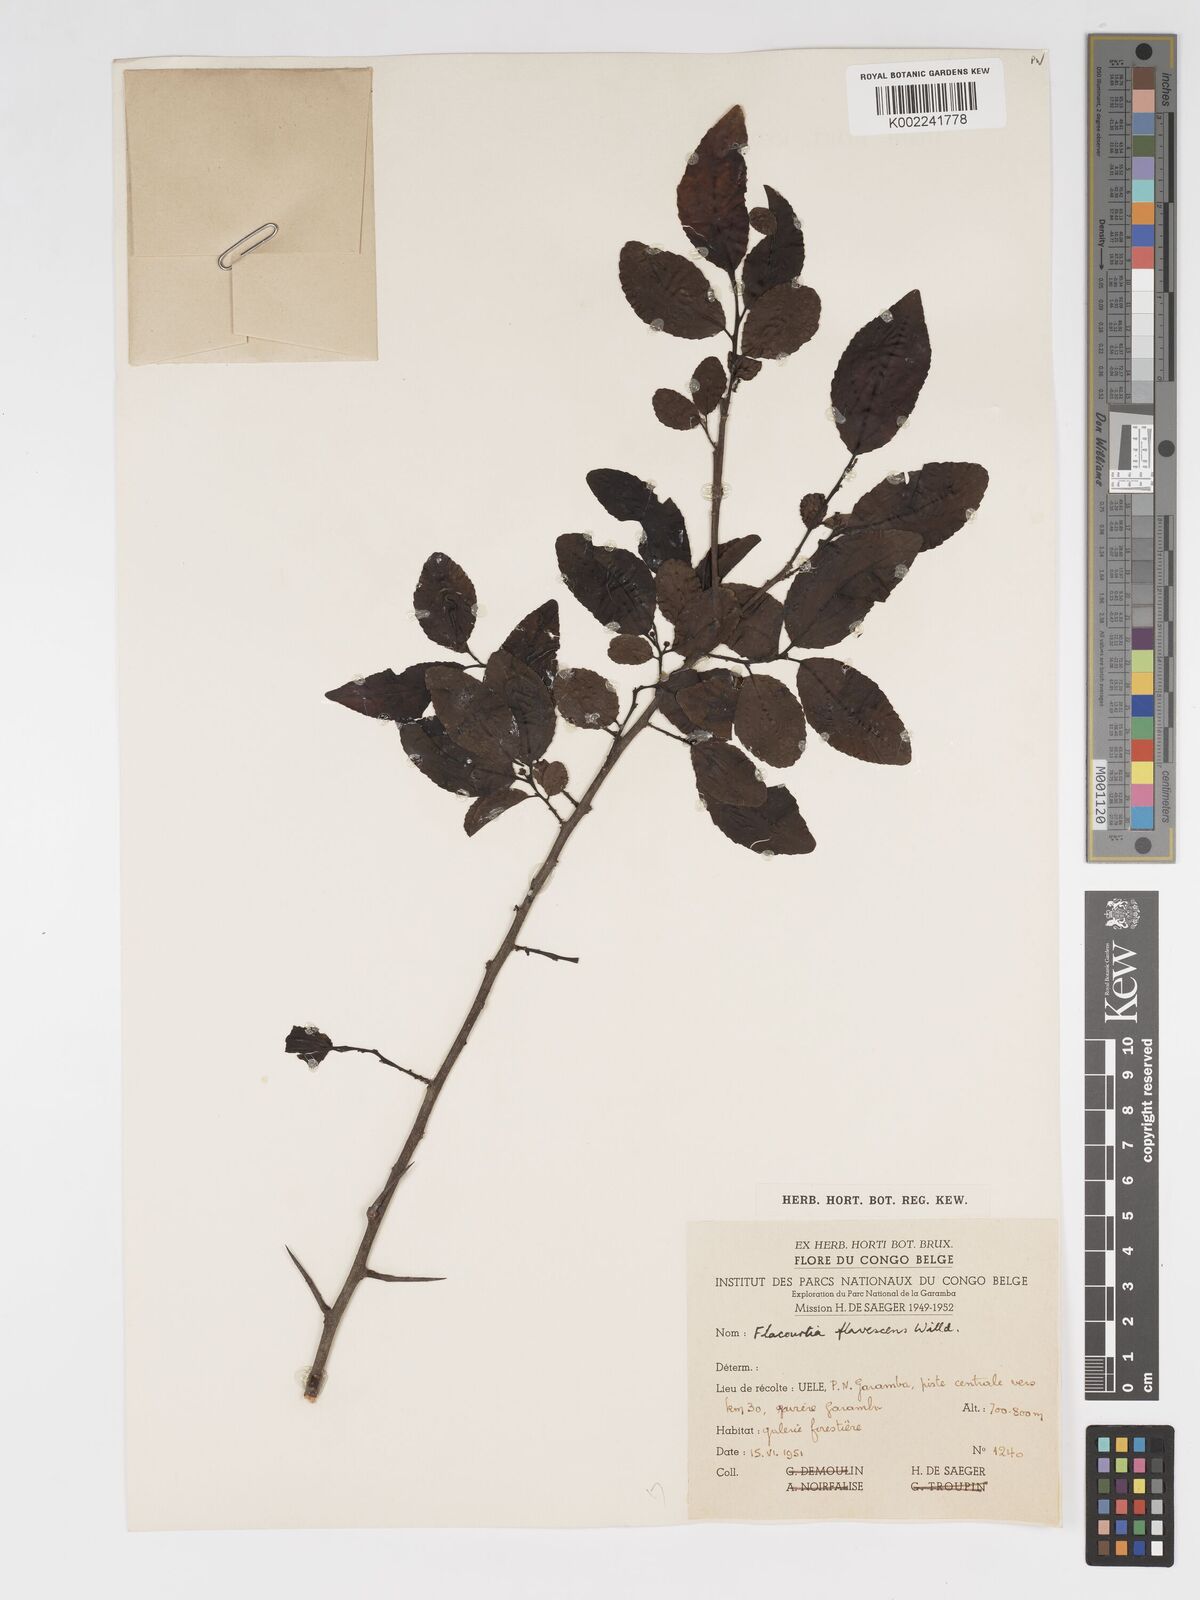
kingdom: Plantae
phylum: Tracheophyta
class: Magnoliopsida
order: Malpighiales
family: Salicaceae
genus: Flacourtia
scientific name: Flacourtia indica
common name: Governor's plum
